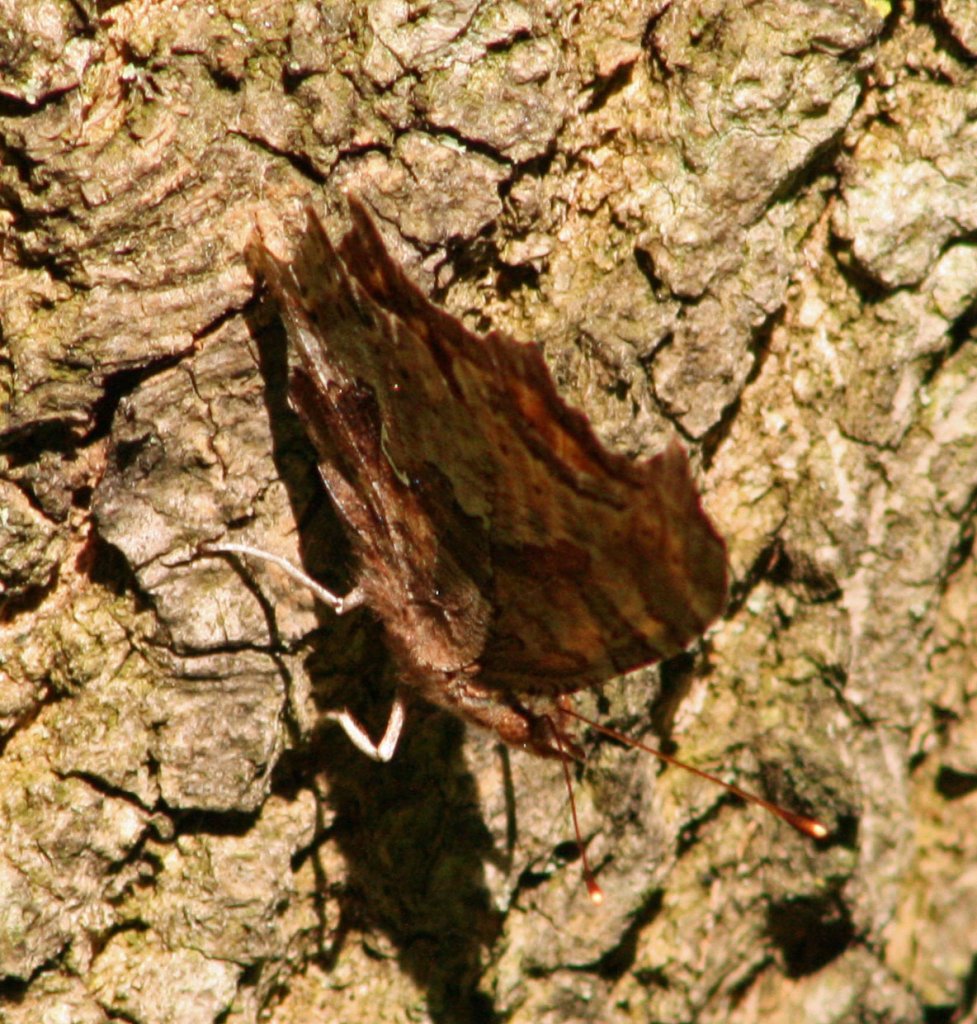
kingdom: Animalia
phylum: Arthropoda
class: Insecta
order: Lepidoptera
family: Nymphalidae
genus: Polygonia
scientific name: Polygonia comma
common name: Eastern Comma
